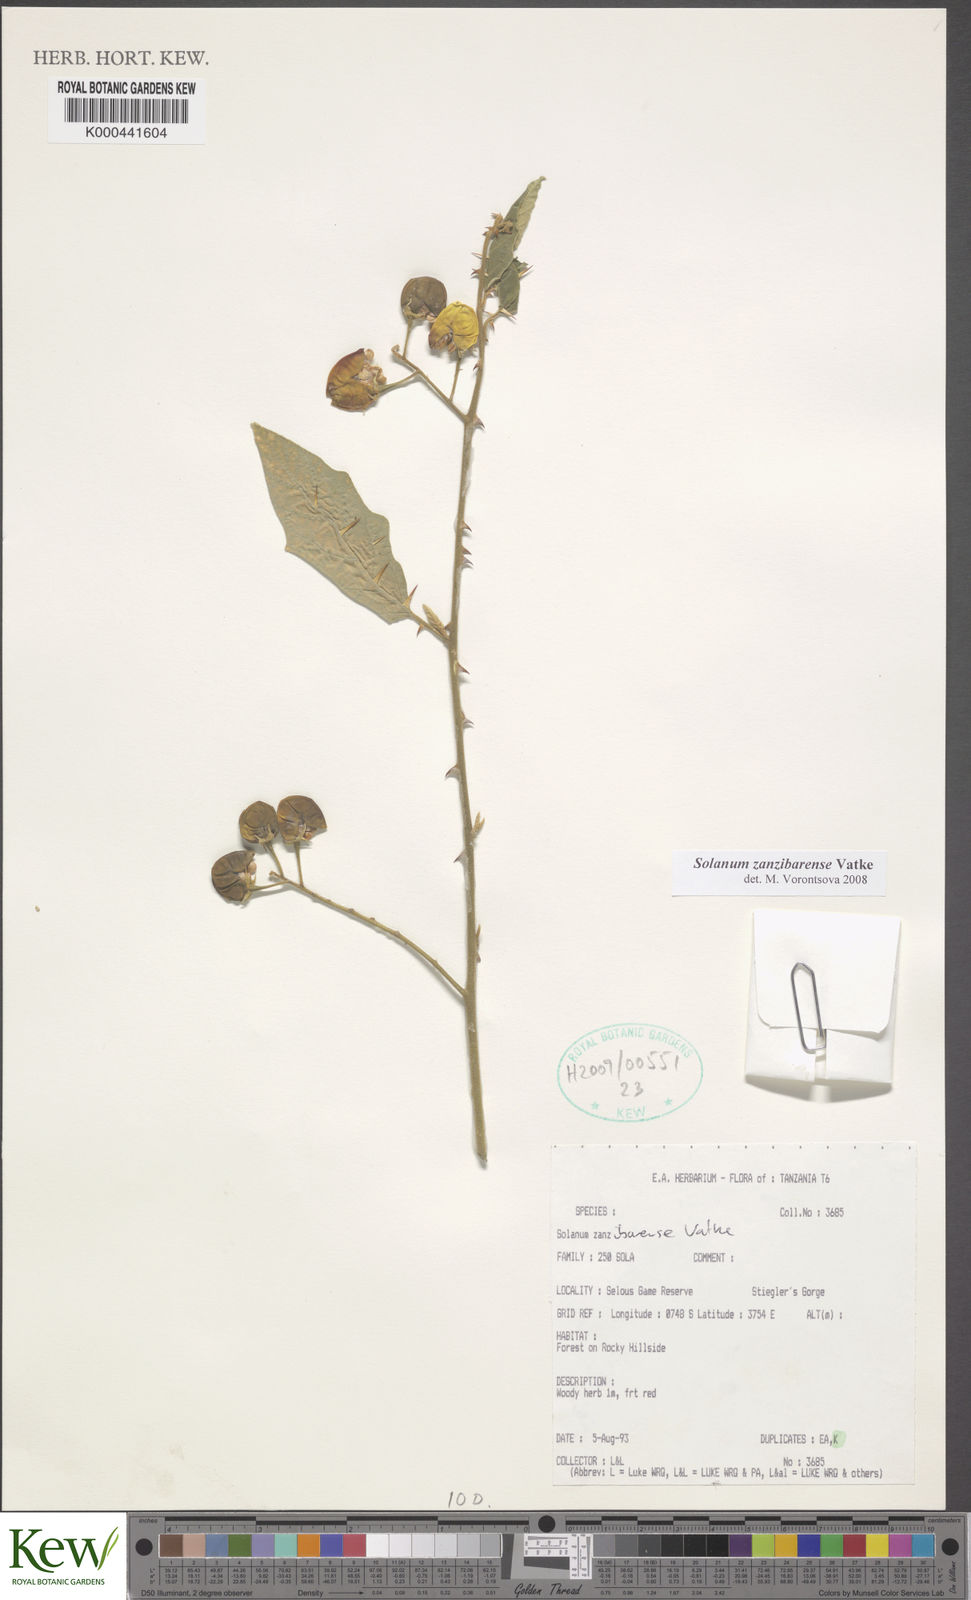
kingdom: Plantae
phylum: Tracheophyta
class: Magnoliopsida
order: Solanales
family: Solanaceae
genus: Solanum
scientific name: Solanum zanzibarense
